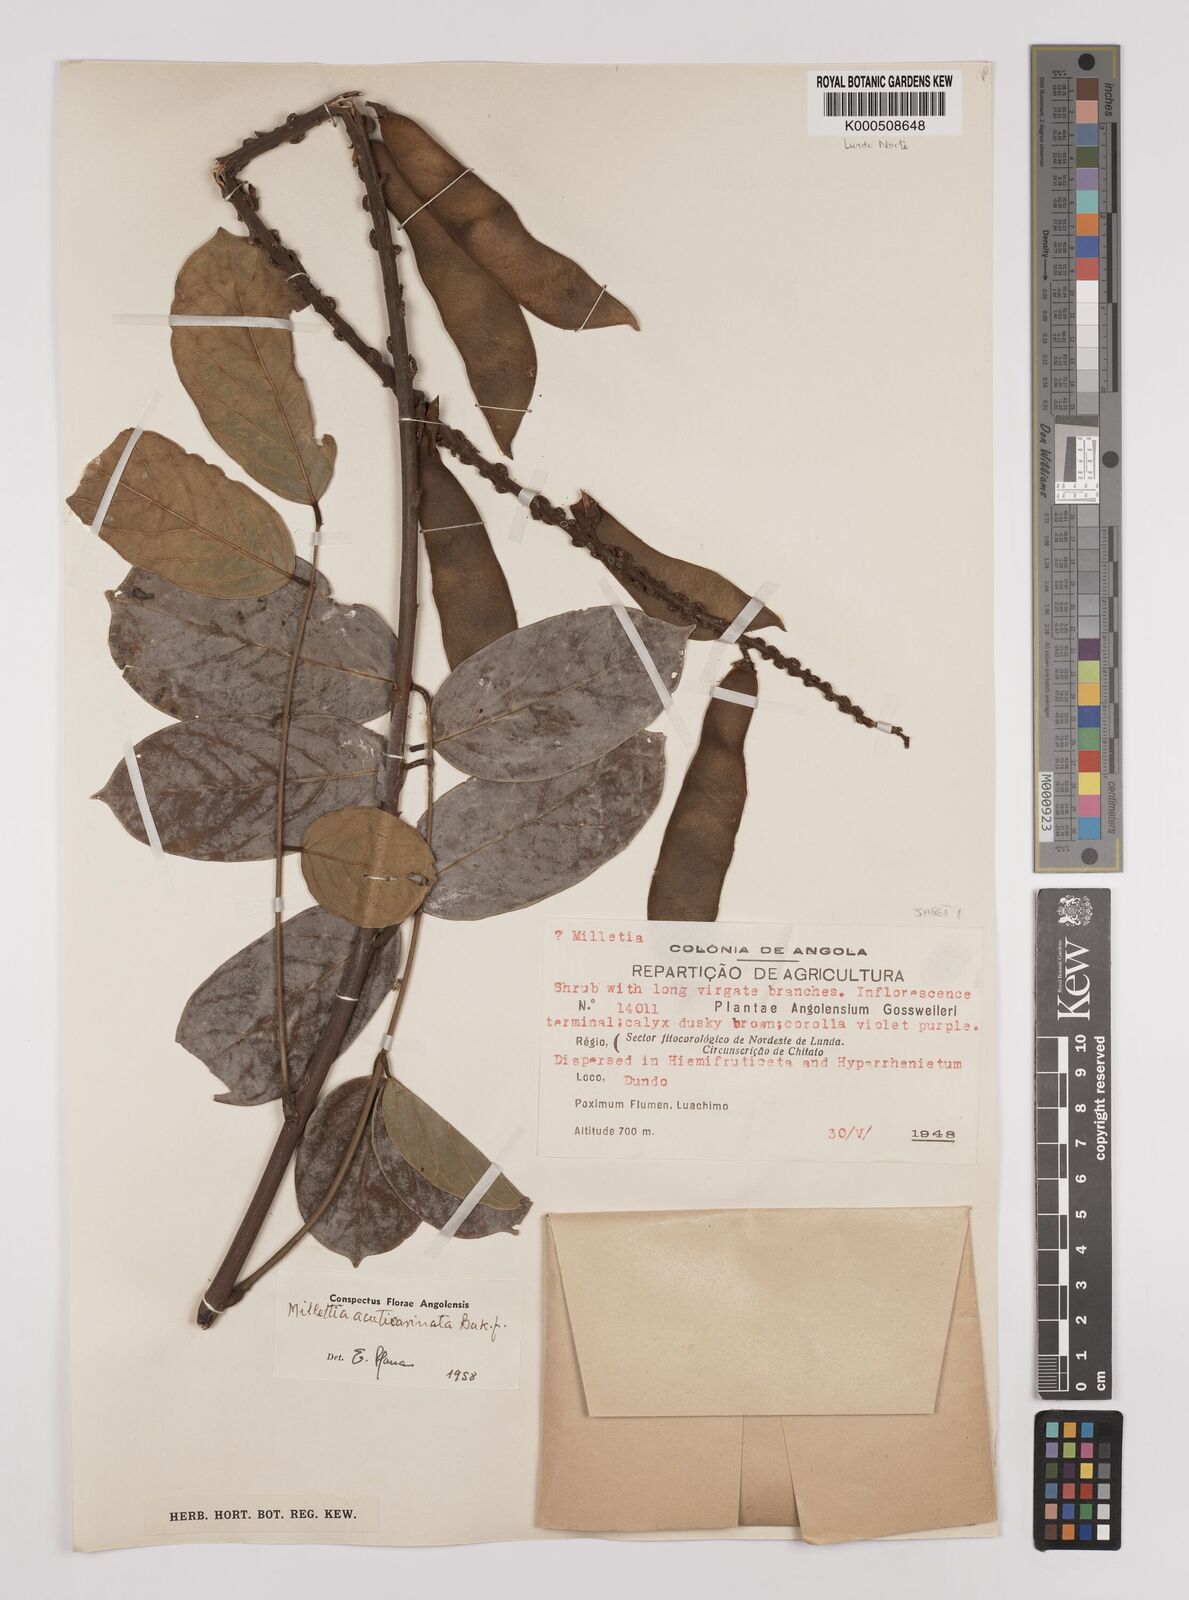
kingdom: Plantae
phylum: Tracheophyta
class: Magnoliopsida
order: Fabales
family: Fabaceae
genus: Millettia
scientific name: Millettia
